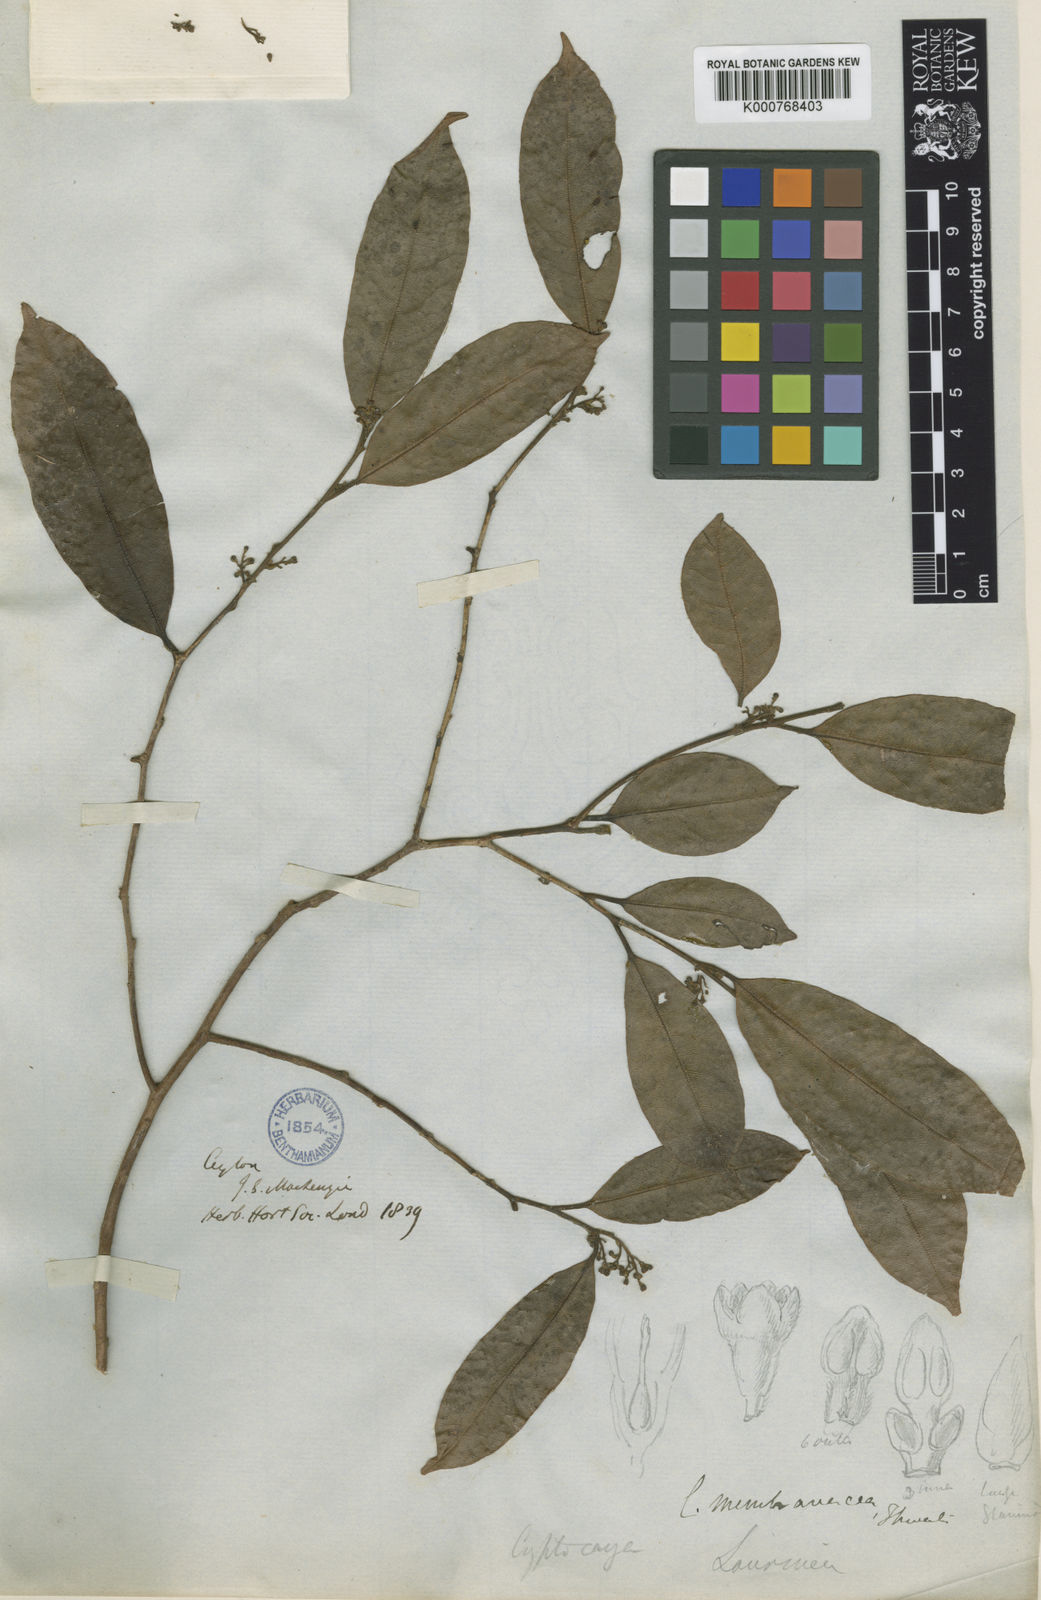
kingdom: Plantae
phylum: Tracheophyta
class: Magnoliopsida
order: Laurales
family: Lauraceae
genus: Cryptocarya
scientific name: Cryptocarya membranacea
